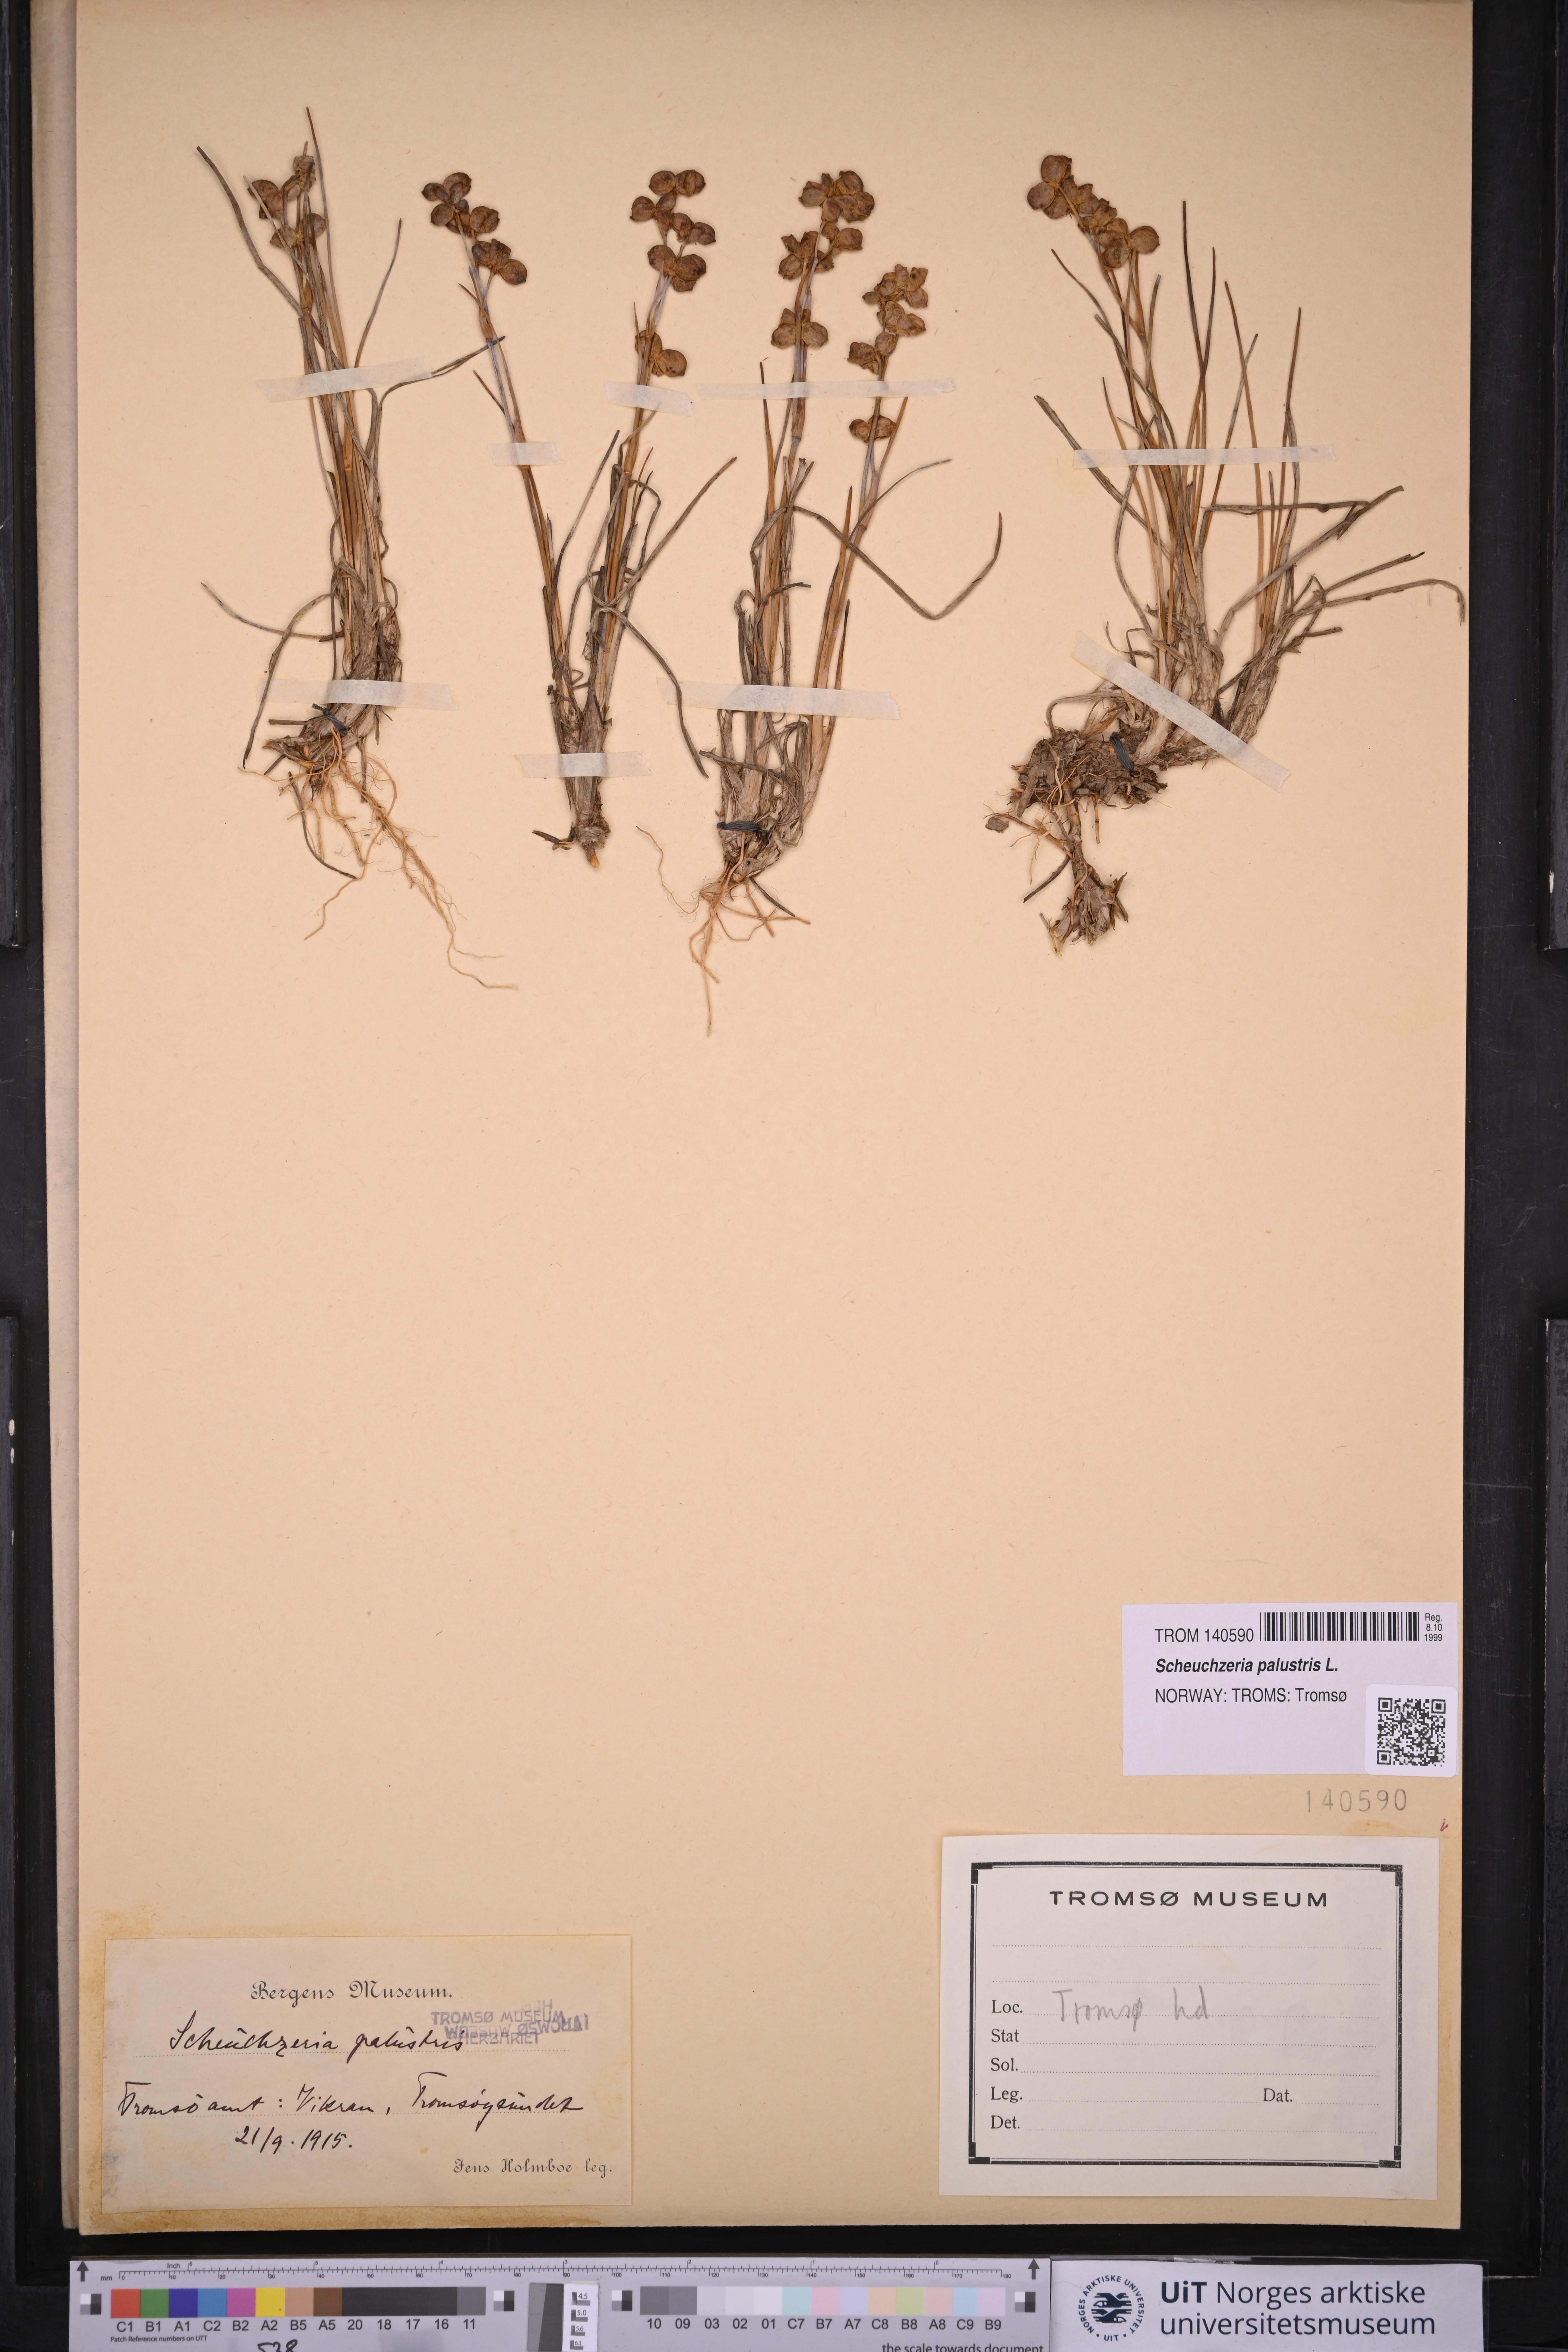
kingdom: Plantae
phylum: Tracheophyta
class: Liliopsida
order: Alismatales
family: Scheuchzeriaceae
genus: Scheuchzeria
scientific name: Scheuchzeria palustris
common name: Rannoch-rush
